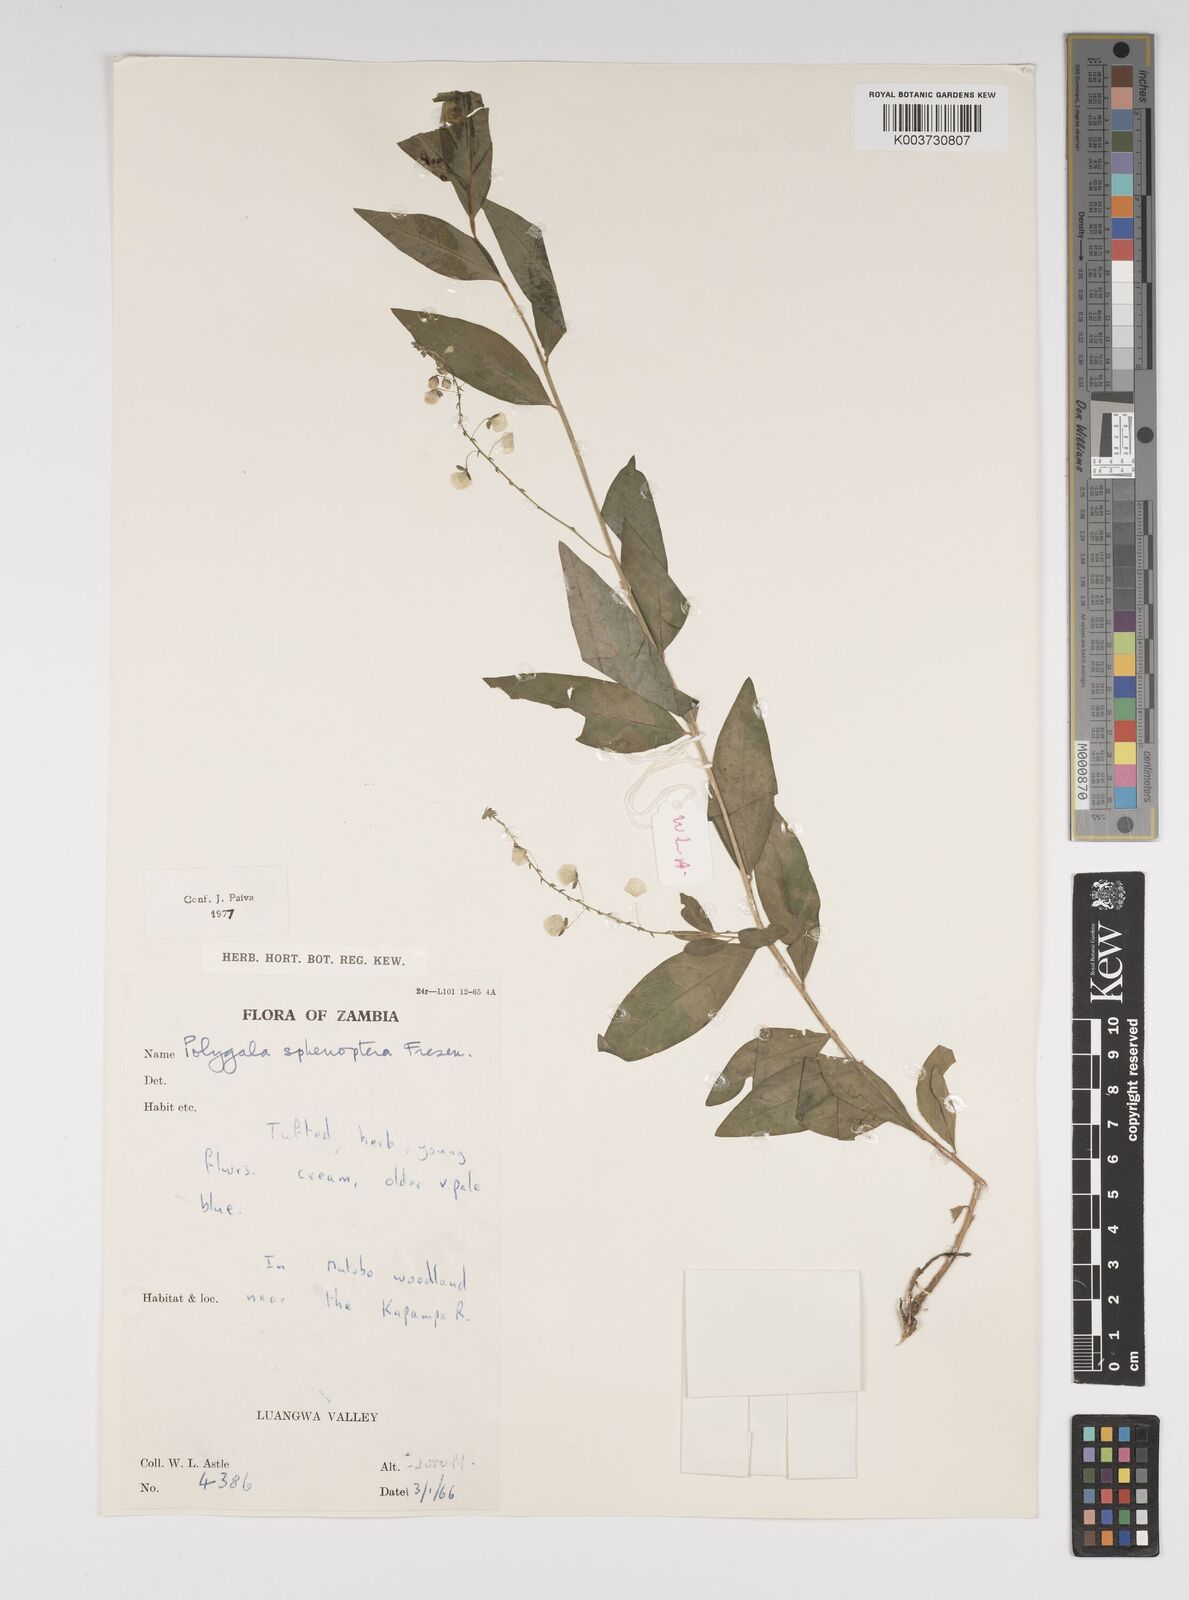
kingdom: Plantae
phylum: Tracheophyta
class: Magnoliopsida
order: Fabales
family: Polygalaceae
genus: Polygala
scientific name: Polygala sphenoptera
